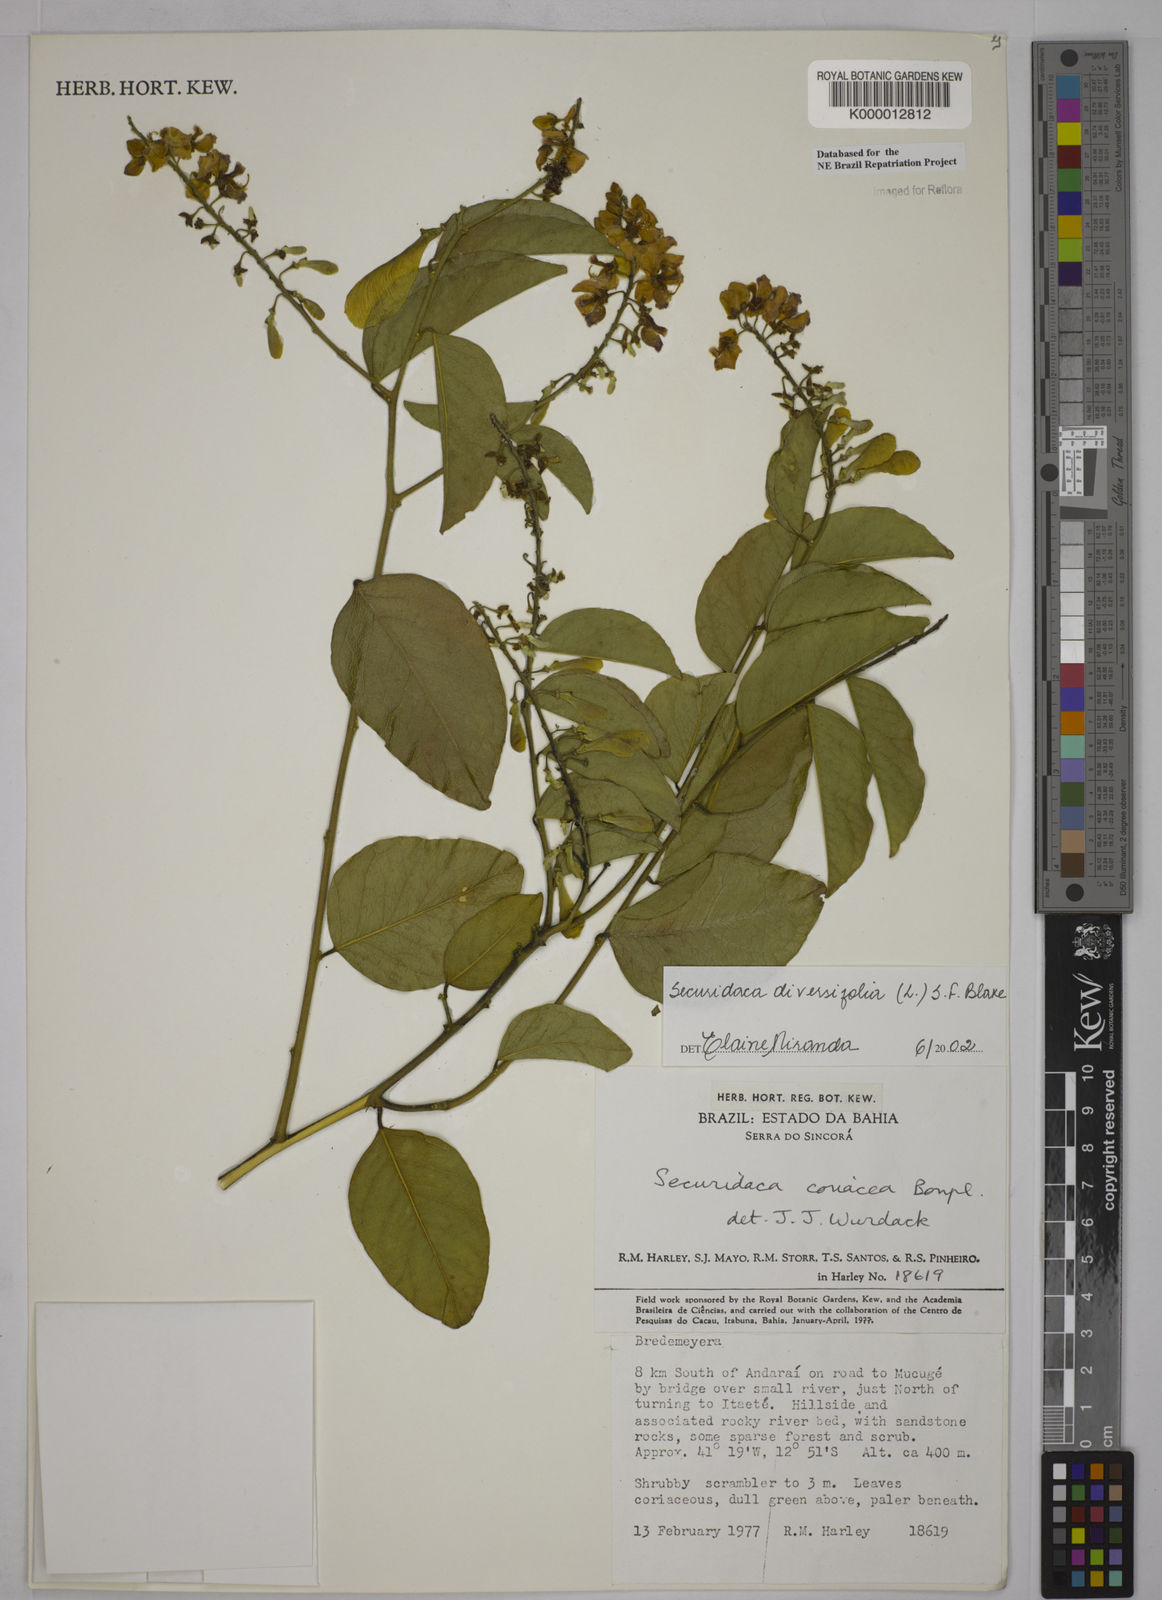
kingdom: Plantae
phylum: Tracheophyta
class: Magnoliopsida
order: Fabales
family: Polygalaceae
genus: Securidaca
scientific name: Securidaca diversifolia
